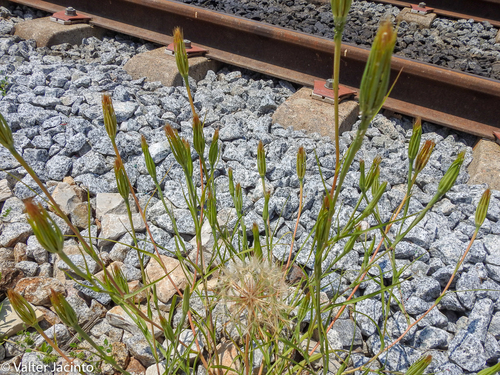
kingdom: Plantae
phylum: Tracheophyta
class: Magnoliopsida
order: Asterales
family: Asteraceae
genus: Geropogon
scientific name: Geropogon hybridus
